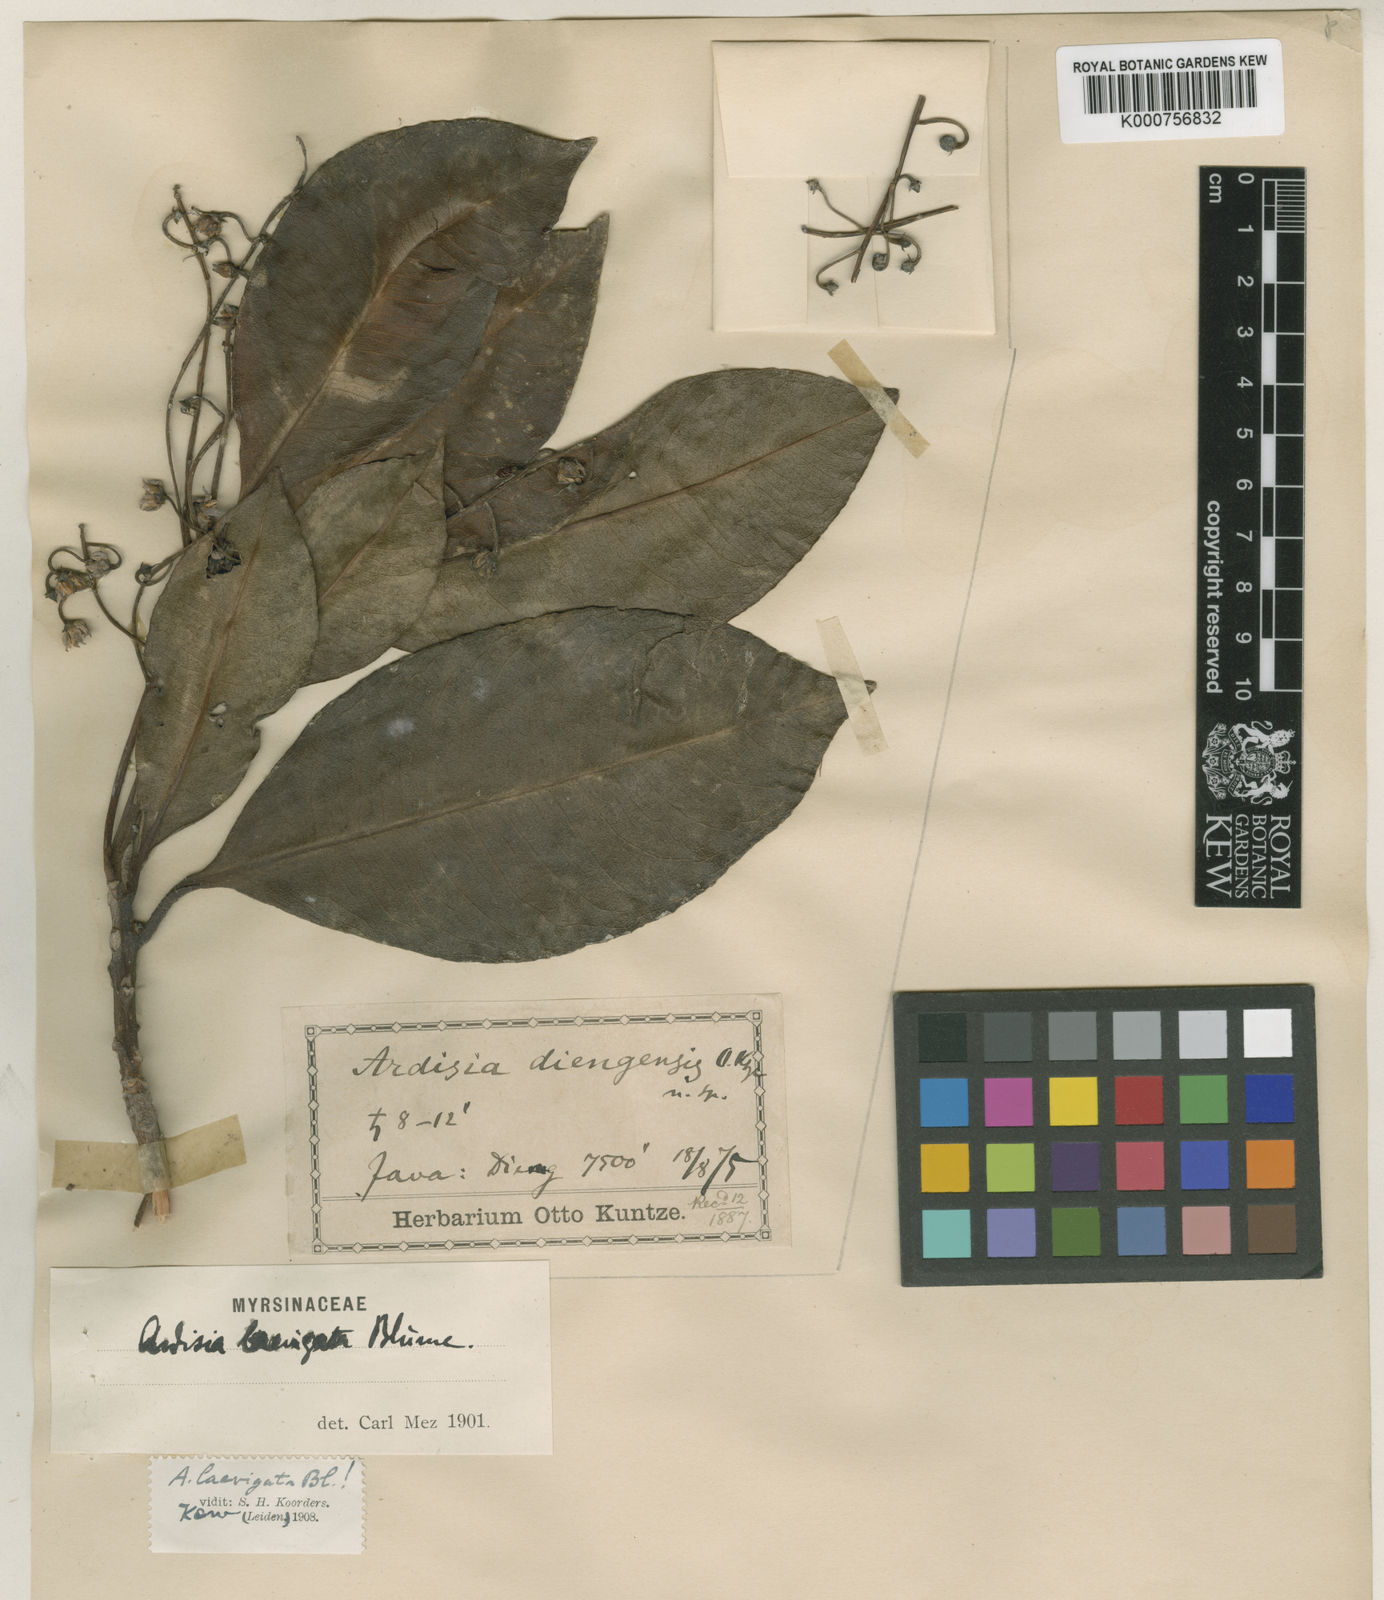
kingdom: Plantae
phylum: Tracheophyta
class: Magnoliopsida
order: Ericales
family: Primulaceae
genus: Ardisia
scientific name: Ardisia laevigata
